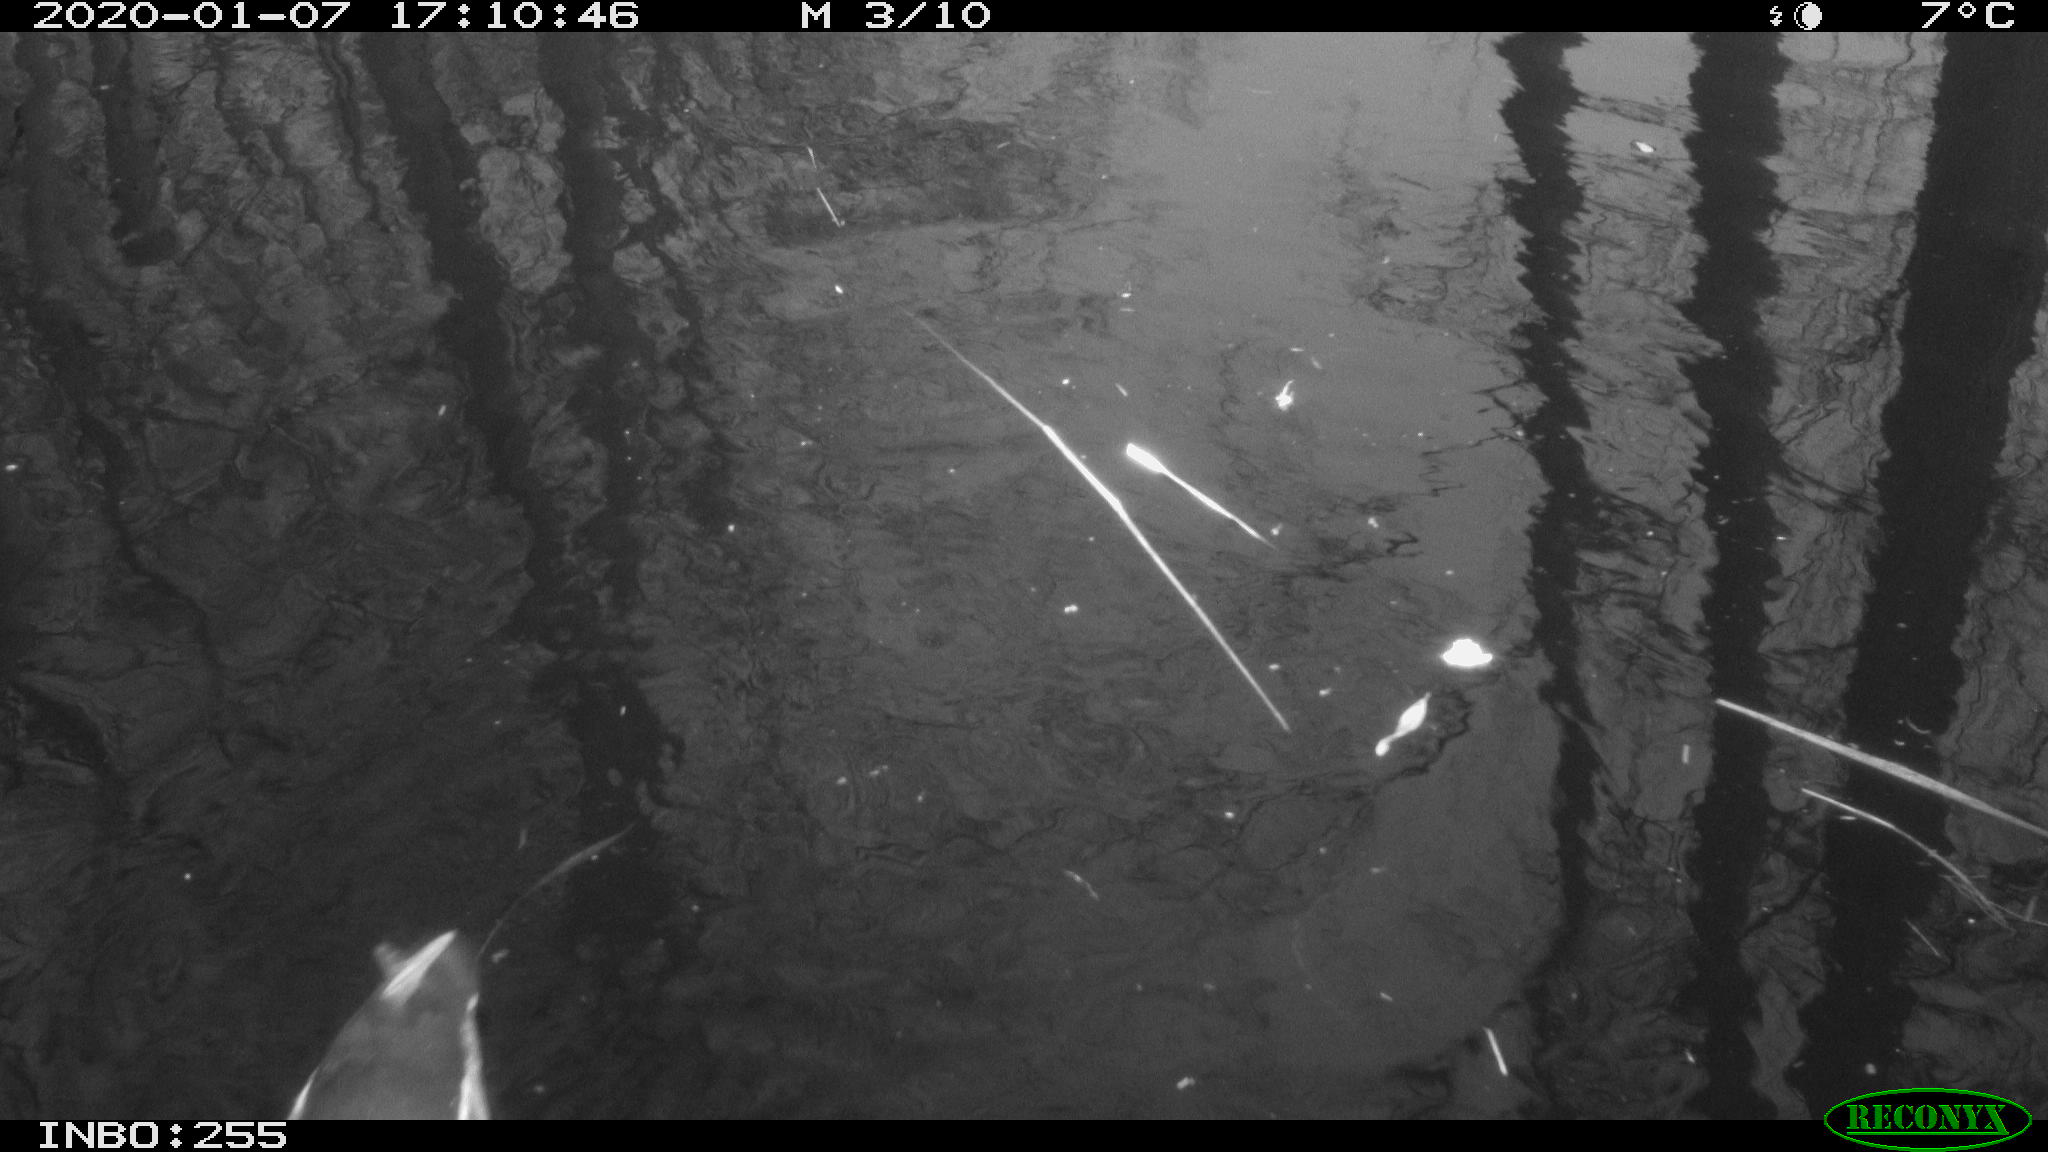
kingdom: Animalia
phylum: Chordata
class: Aves
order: Gruiformes
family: Rallidae
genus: Gallinula
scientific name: Gallinula chloropus
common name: Common moorhen
